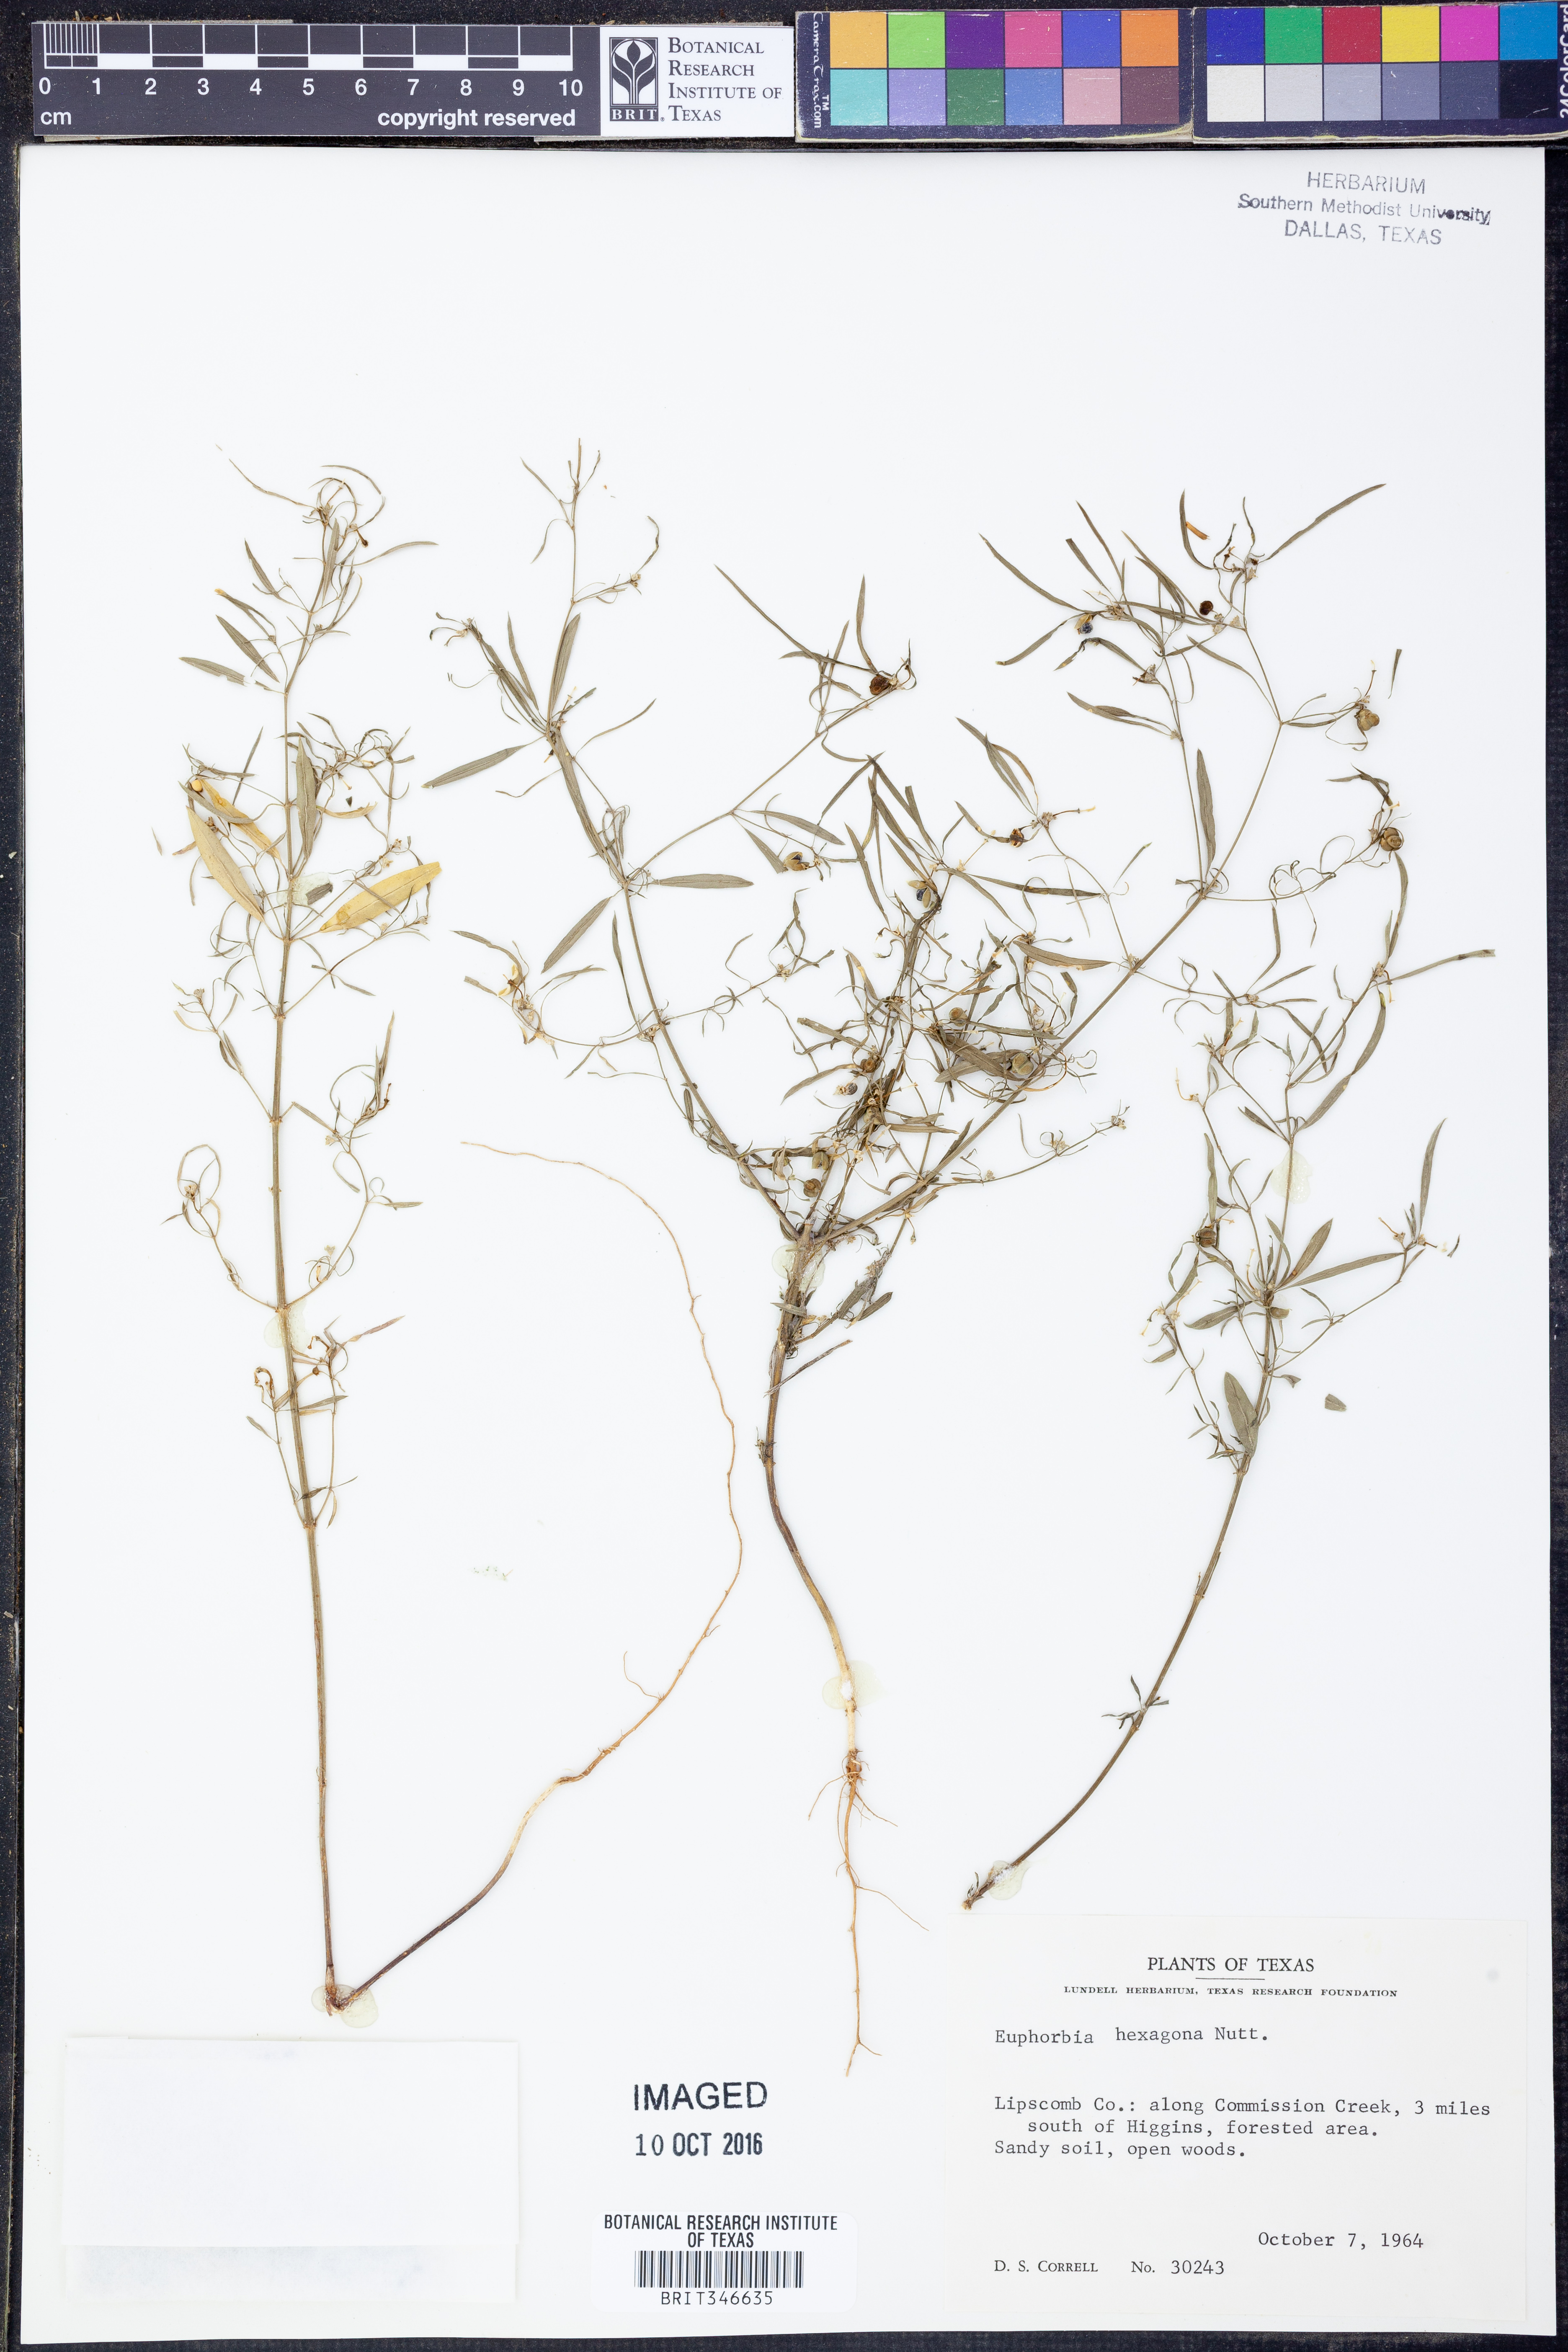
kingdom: Plantae
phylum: Tracheophyta
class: Magnoliopsida
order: Malpighiales
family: Euphorbiaceae
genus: Euphorbia
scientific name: Euphorbia hexagona
